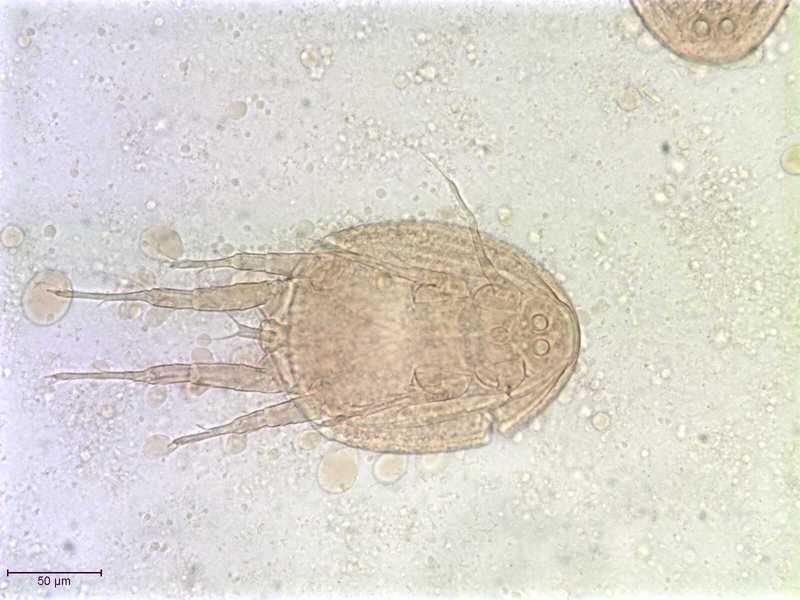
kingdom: Animalia
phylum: Arthropoda
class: Arachnida
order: Sarcoptiformes
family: Histiostomatidae
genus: Capronomoia
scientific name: Capronomoia sphaerocerae
